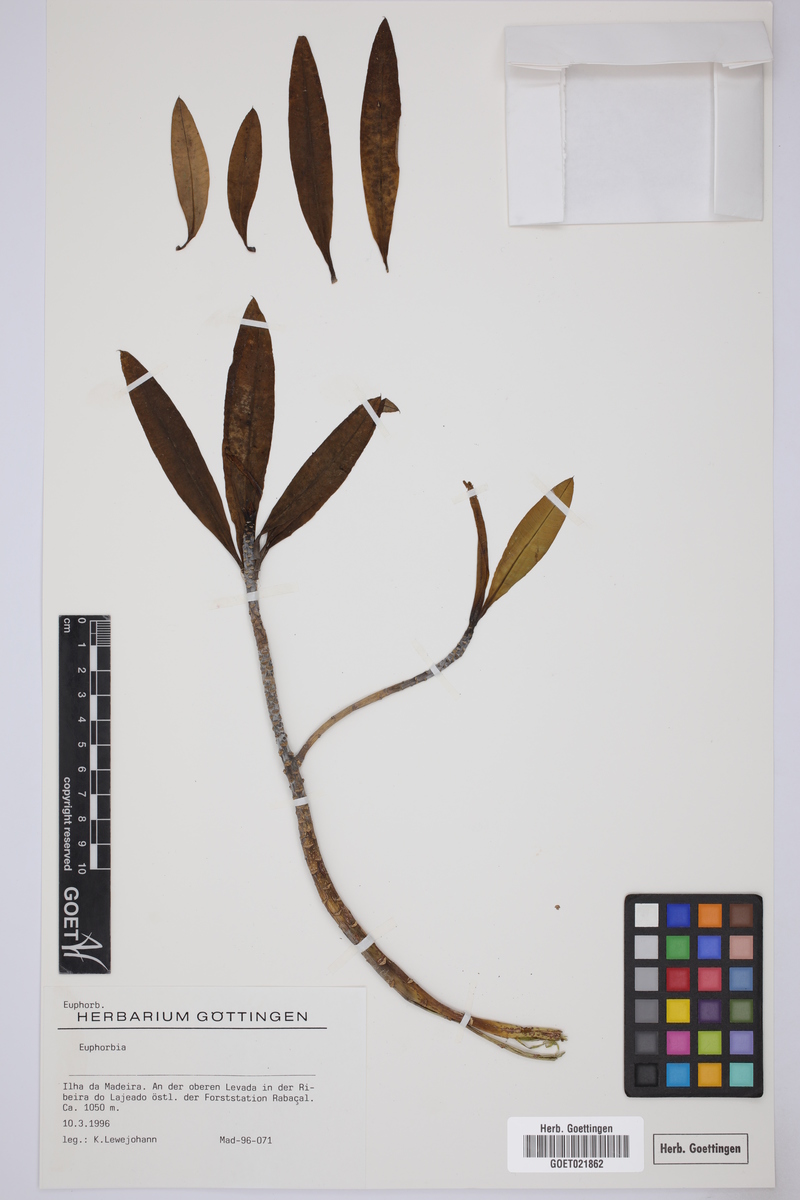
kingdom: Plantae
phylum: Tracheophyta
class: Magnoliopsida
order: Malpighiales
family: Euphorbiaceae
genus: Euphorbia
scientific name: Euphorbia
